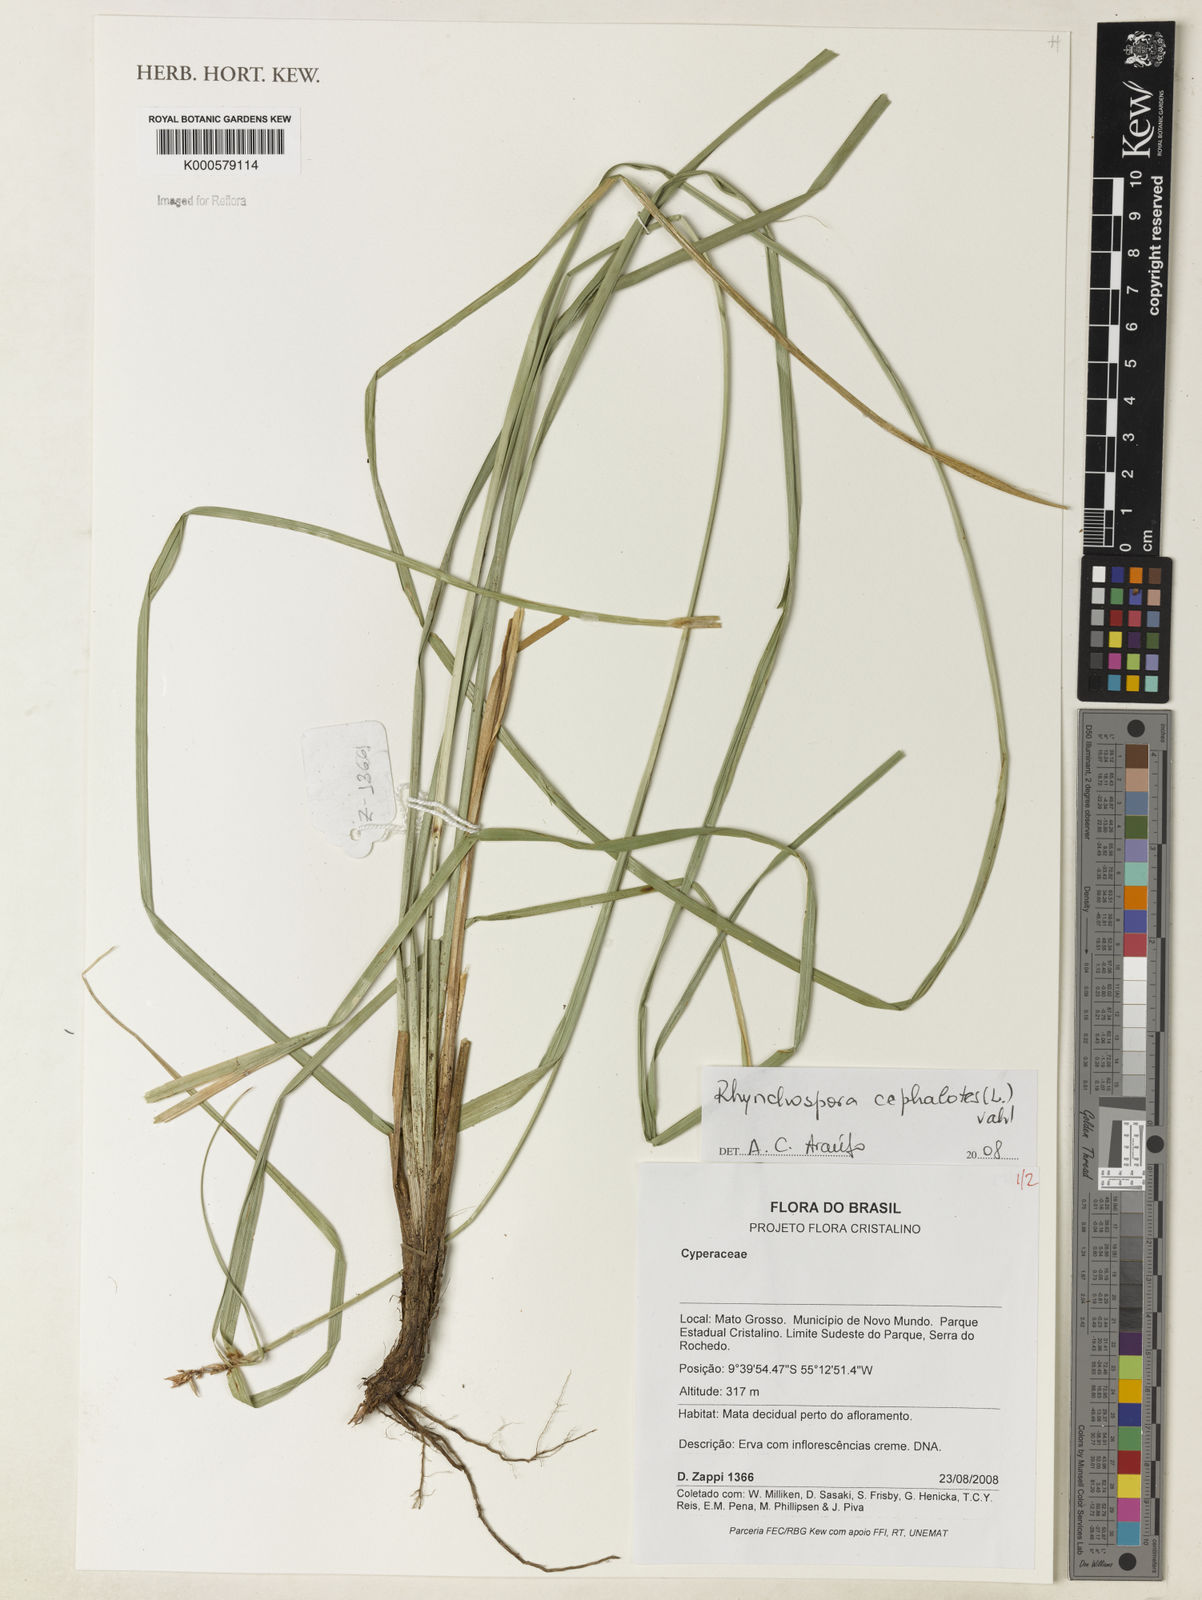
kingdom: Plantae
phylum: Tracheophyta
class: Liliopsida
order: Poales
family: Cyperaceae
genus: Rhynchospora
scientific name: Rhynchospora cephalotes
